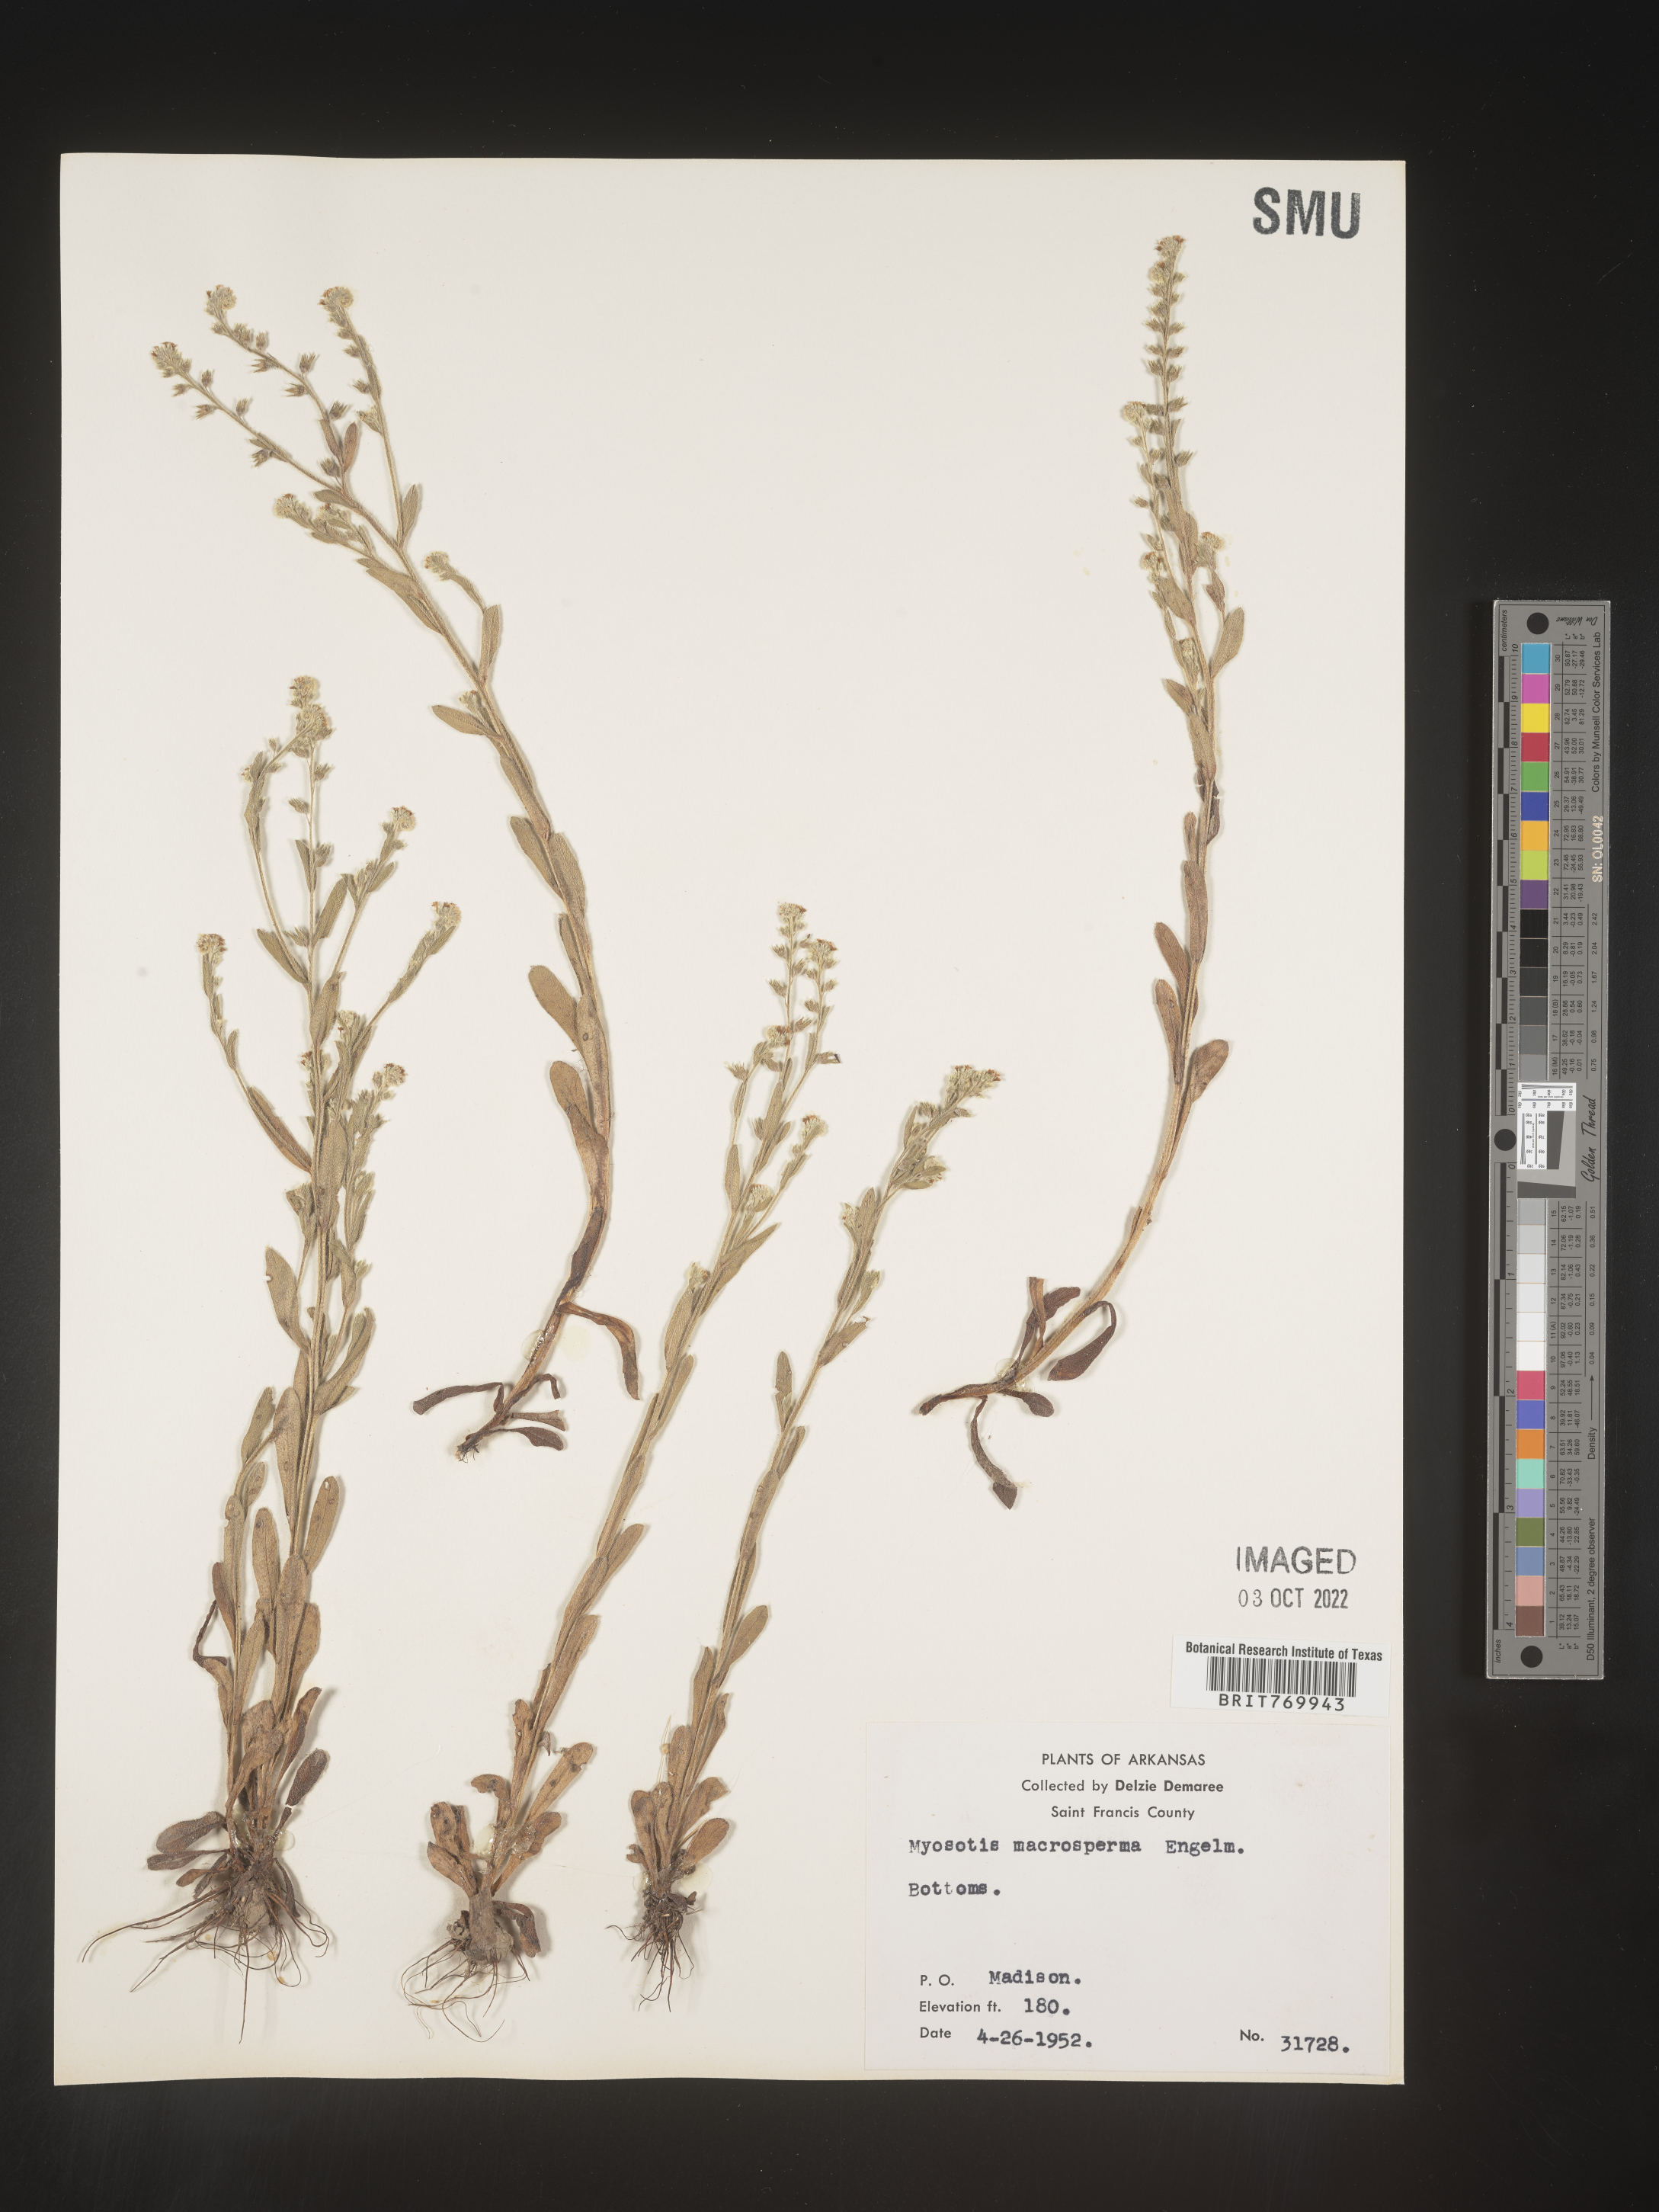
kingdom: Plantae
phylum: Tracheophyta
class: Magnoliopsida
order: Boraginales
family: Boraginaceae
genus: Myosotis
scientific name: Myosotis verna
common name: Early forget-me-not
